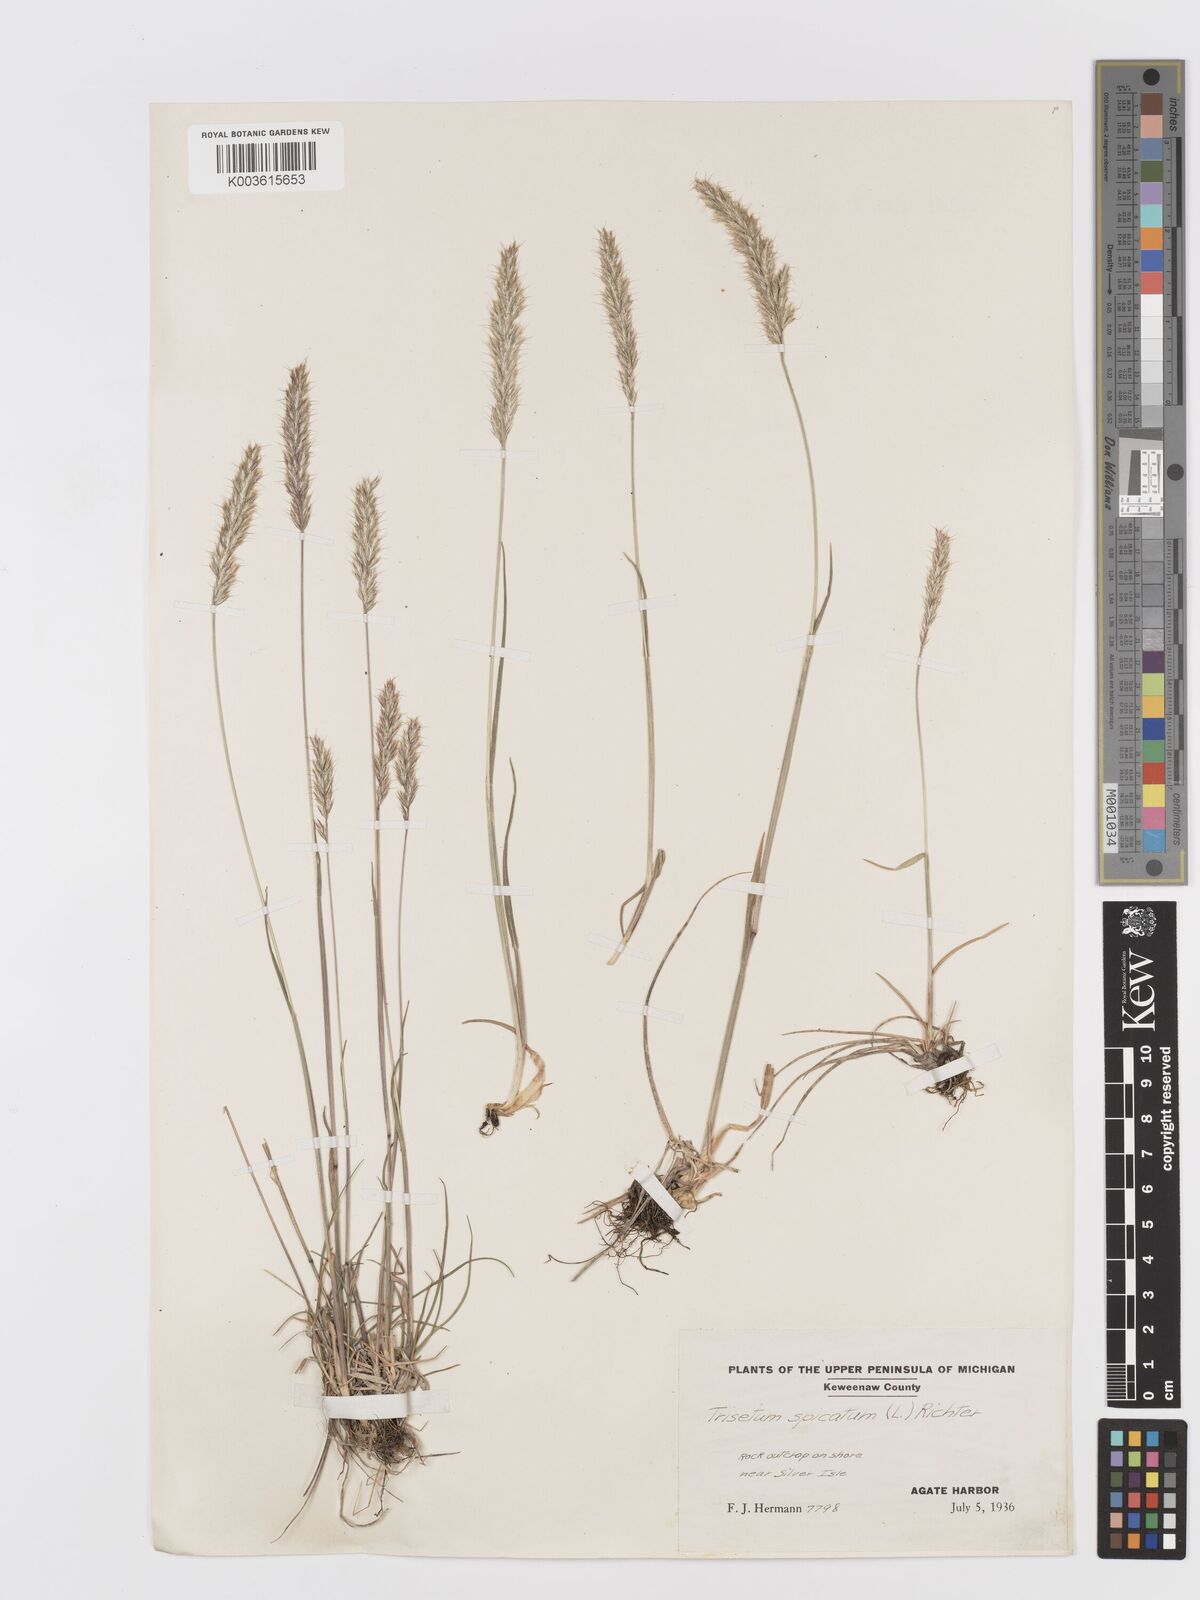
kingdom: Plantae
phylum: Tracheophyta
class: Liliopsida
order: Poales
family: Poaceae
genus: Koeleria
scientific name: Koeleria spicata
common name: Mountain trisetum
